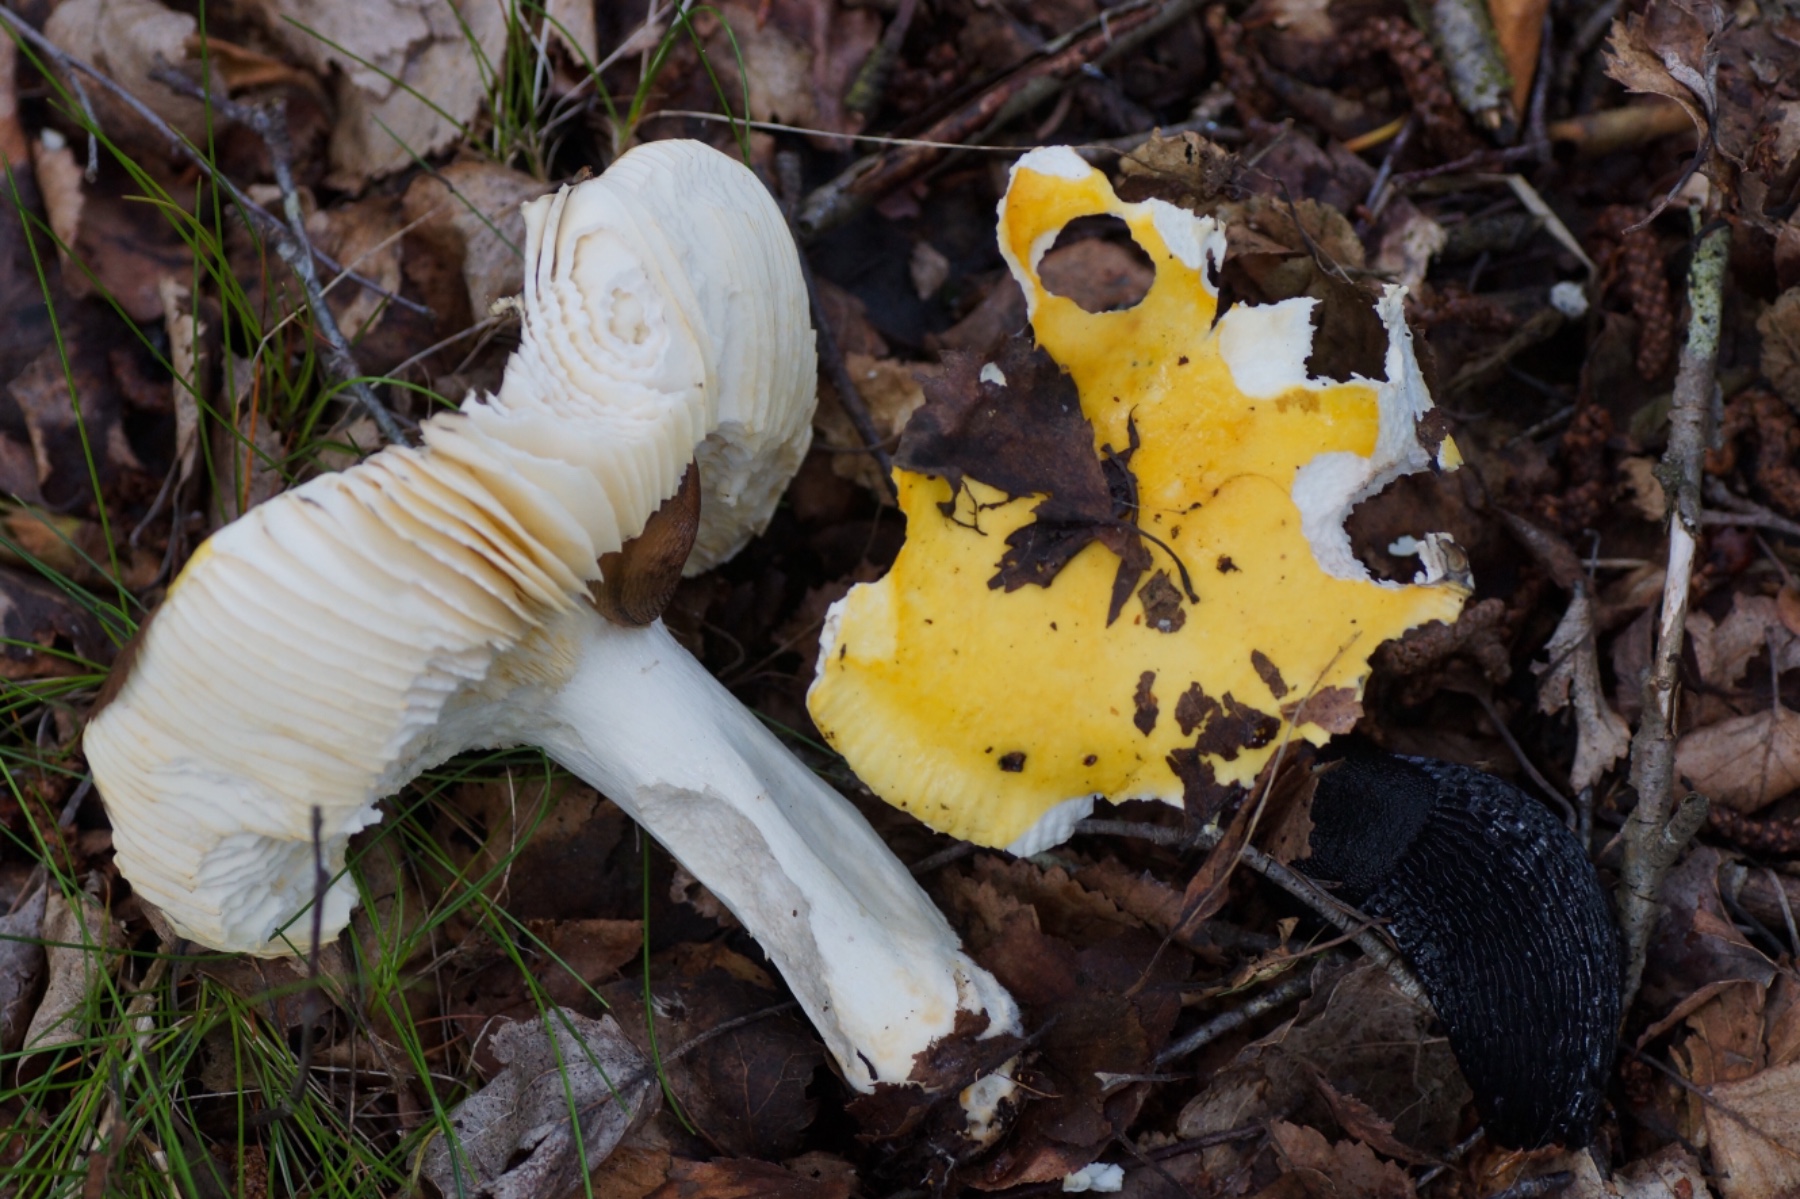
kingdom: Fungi
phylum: Basidiomycota
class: Agaricomycetes
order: Russulales
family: Russulaceae
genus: Russula
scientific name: Russula claroflava
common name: birke-skørhat
